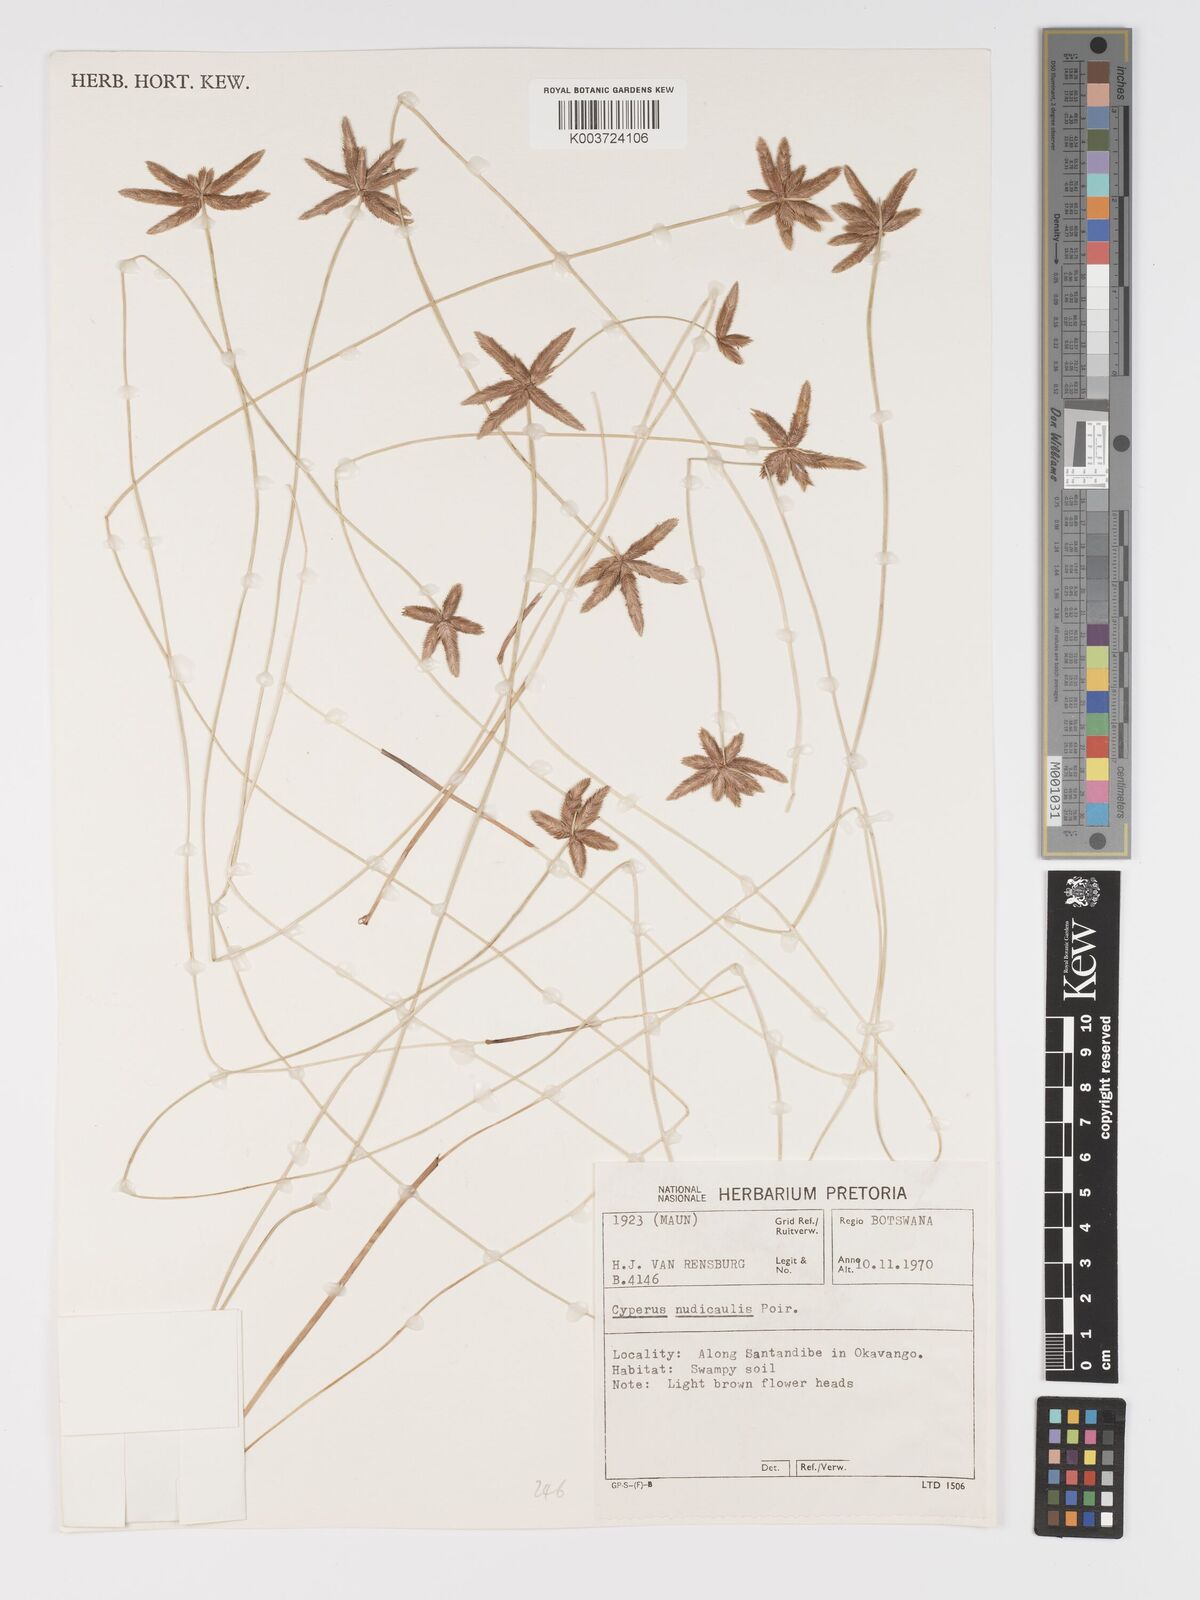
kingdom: Plantae
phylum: Tracheophyta
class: Liliopsida
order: Poales
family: Cyperaceae
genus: Cyperus
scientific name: Cyperus compressus
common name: Poorland flatsedge
